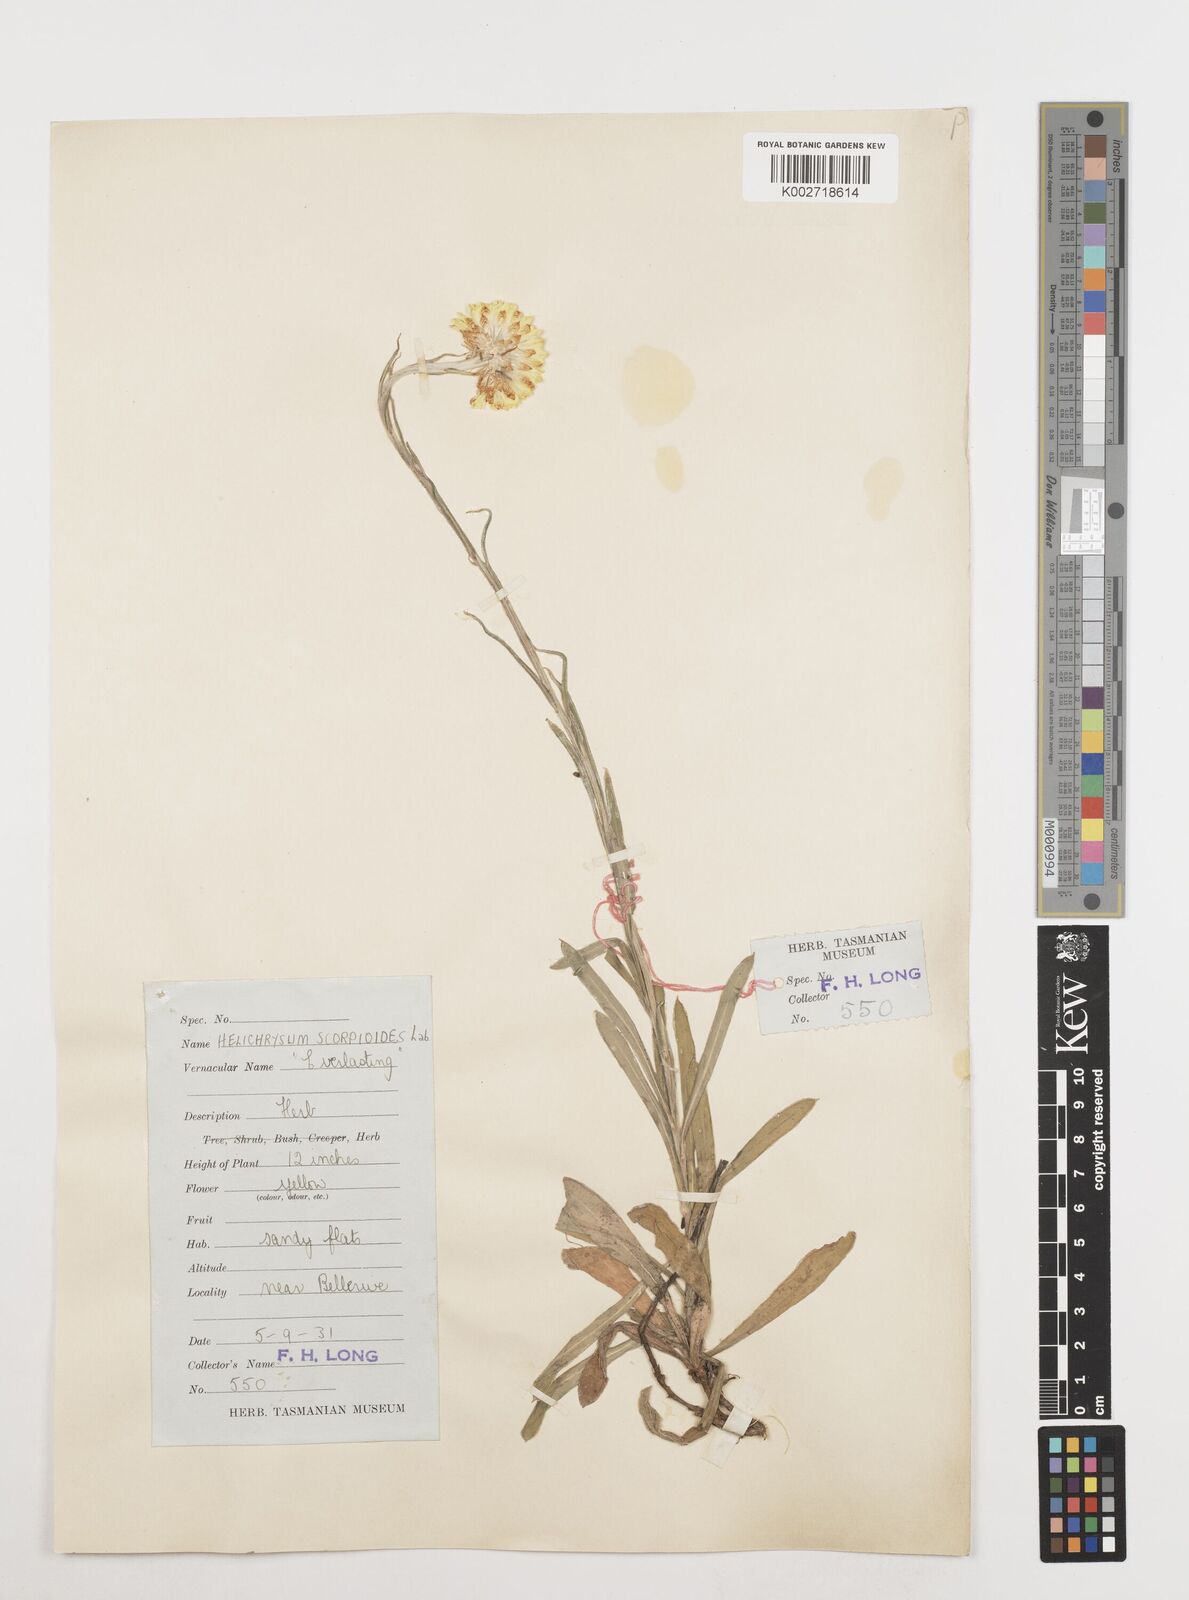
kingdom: Plantae
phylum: Tracheophyta
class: Magnoliopsida
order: Asterales
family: Asteraceae
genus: Coronidium
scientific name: Coronidium scorpioides
